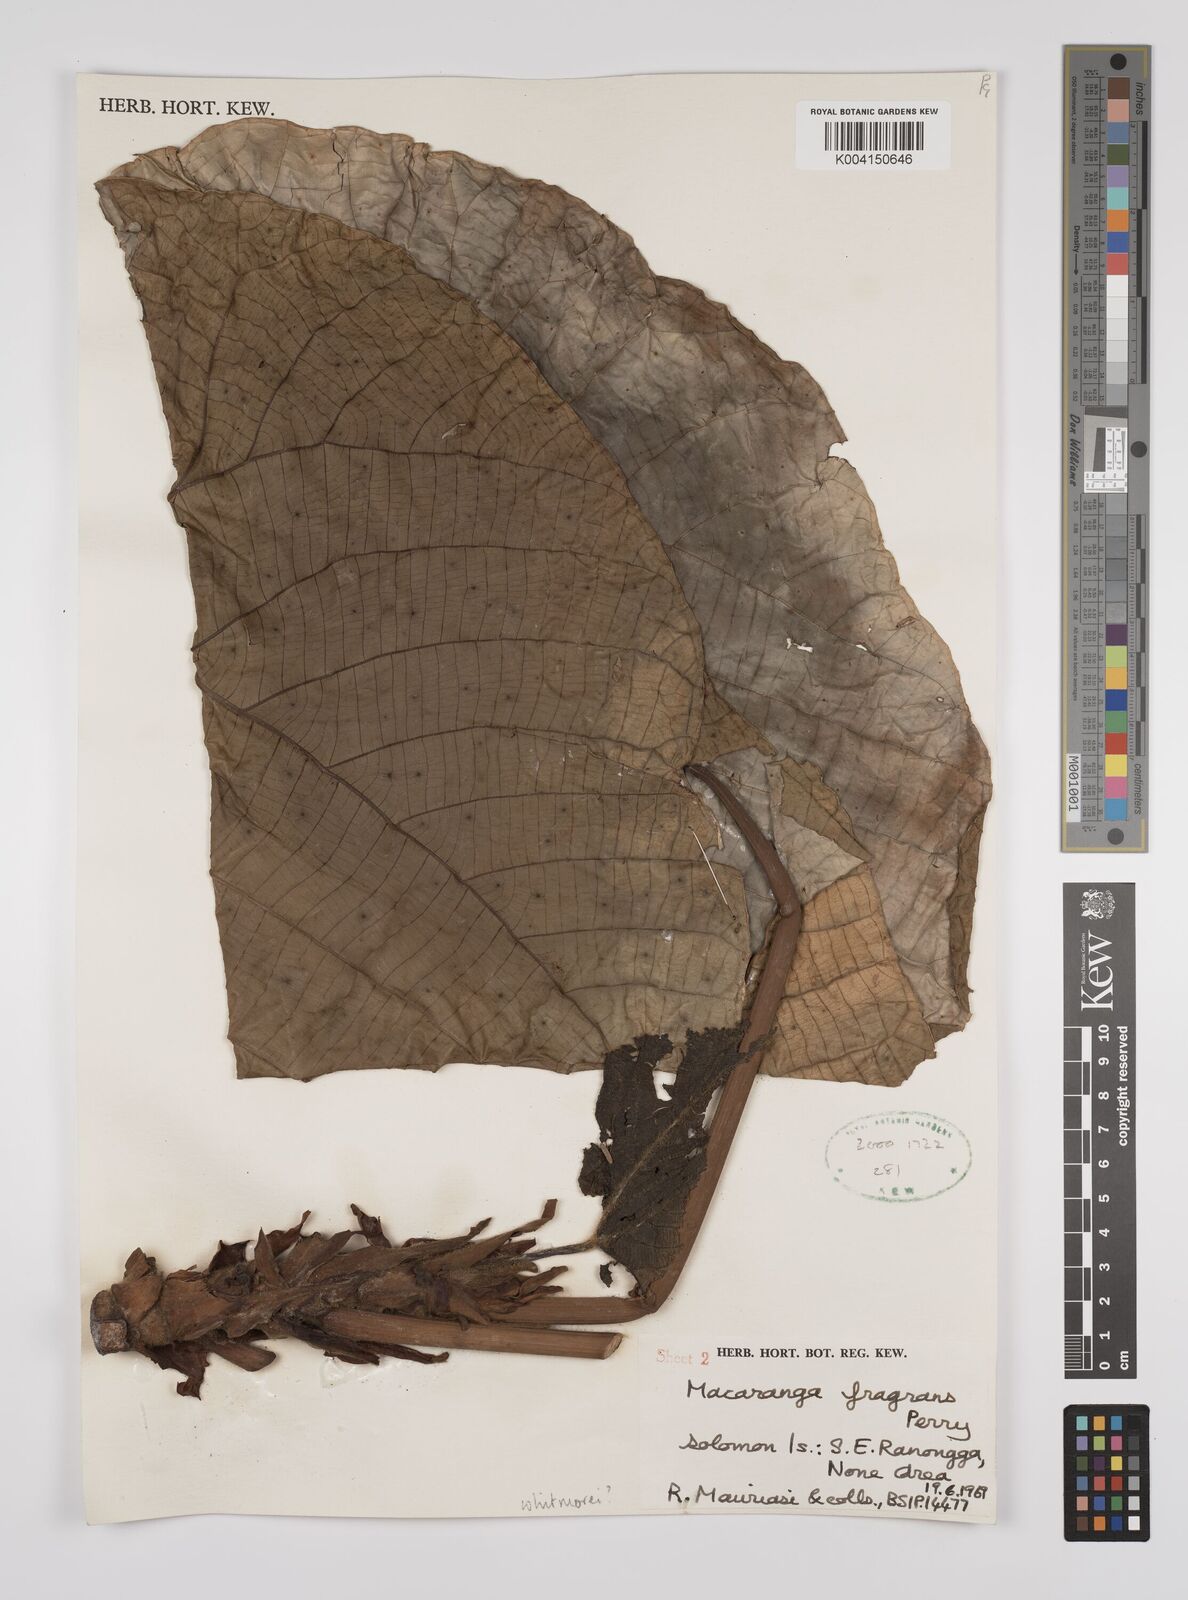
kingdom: Plantae
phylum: Tracheophyta
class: Magnoliopsida
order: Malpighiales
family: Euphorbiaceae
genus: Macaranga
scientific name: Macaranga whitmorei
